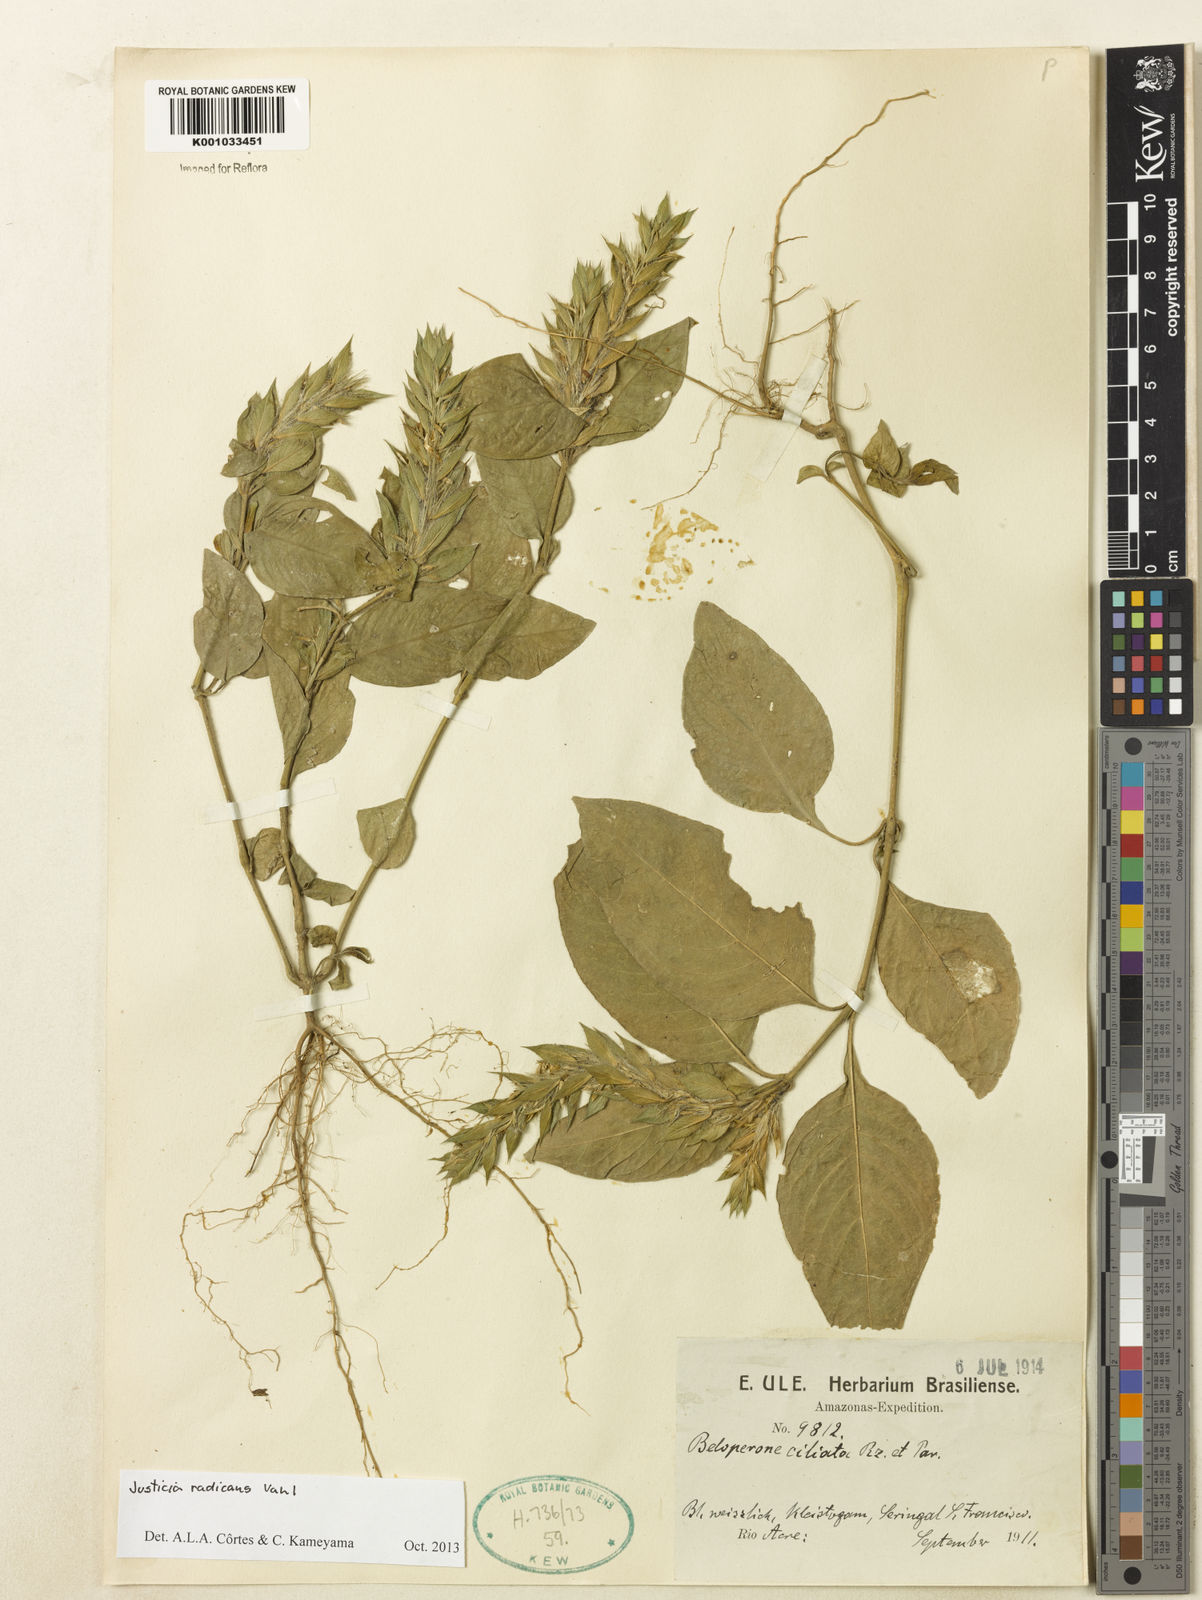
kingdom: Plantae
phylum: Tracheophyta
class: Magnoliopsida
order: Lamiales
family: Acanthaceae
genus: Justicia
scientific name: Justicia radicans
